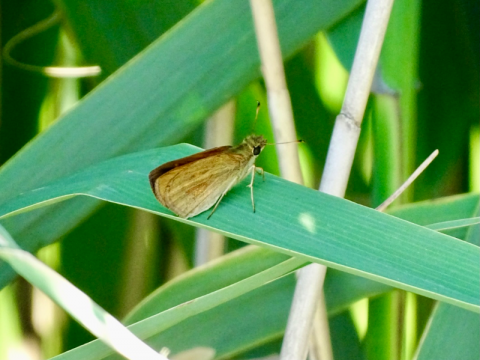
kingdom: Animalia
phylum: Arthropoda
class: Insecta
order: Lepidoptera
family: Hesperiidae
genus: Poanes
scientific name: Poanes viator
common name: Broad-winged Skipper
